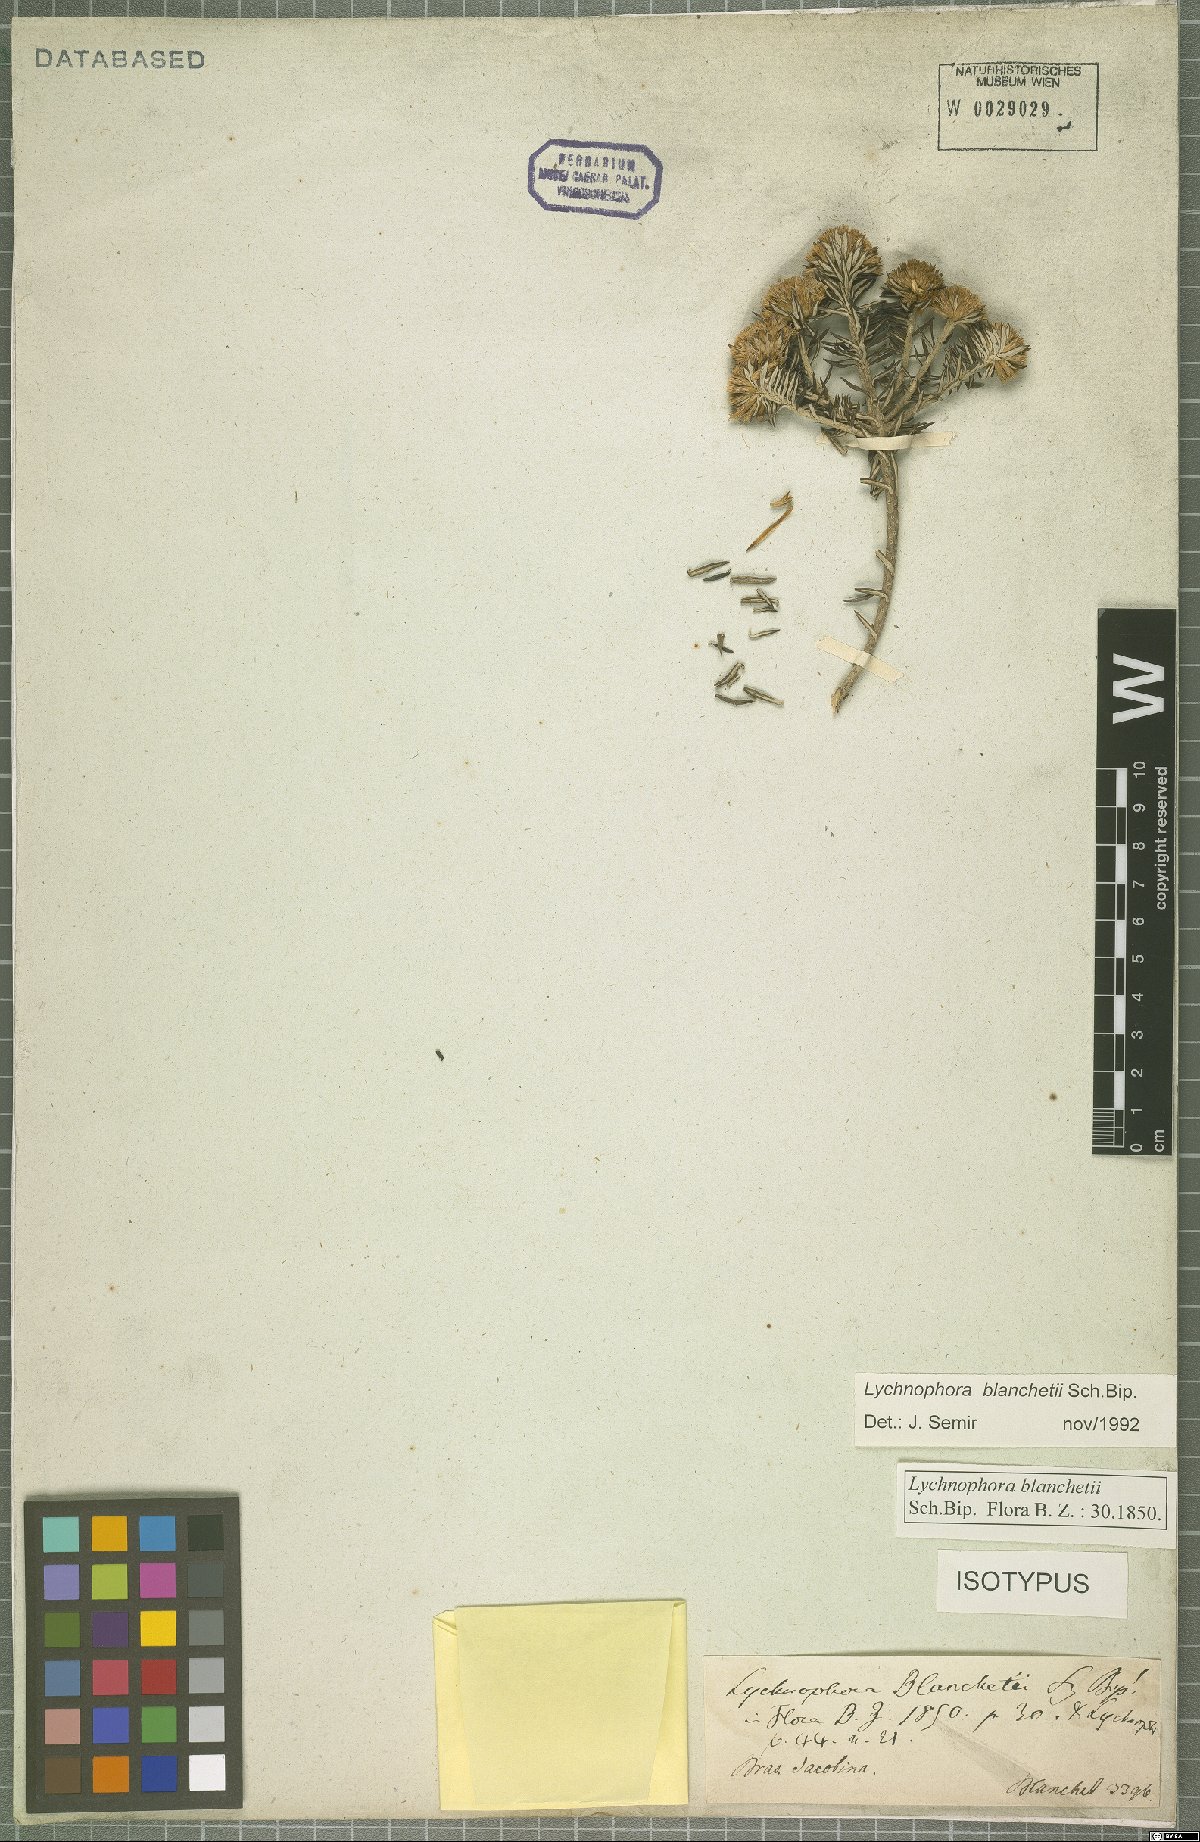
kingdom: Plantae
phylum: Tracheophyta
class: Magnoliopsida
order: Asterales
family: Asteraceae
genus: Lychnophorella
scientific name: Lychnophorella blanchetii
